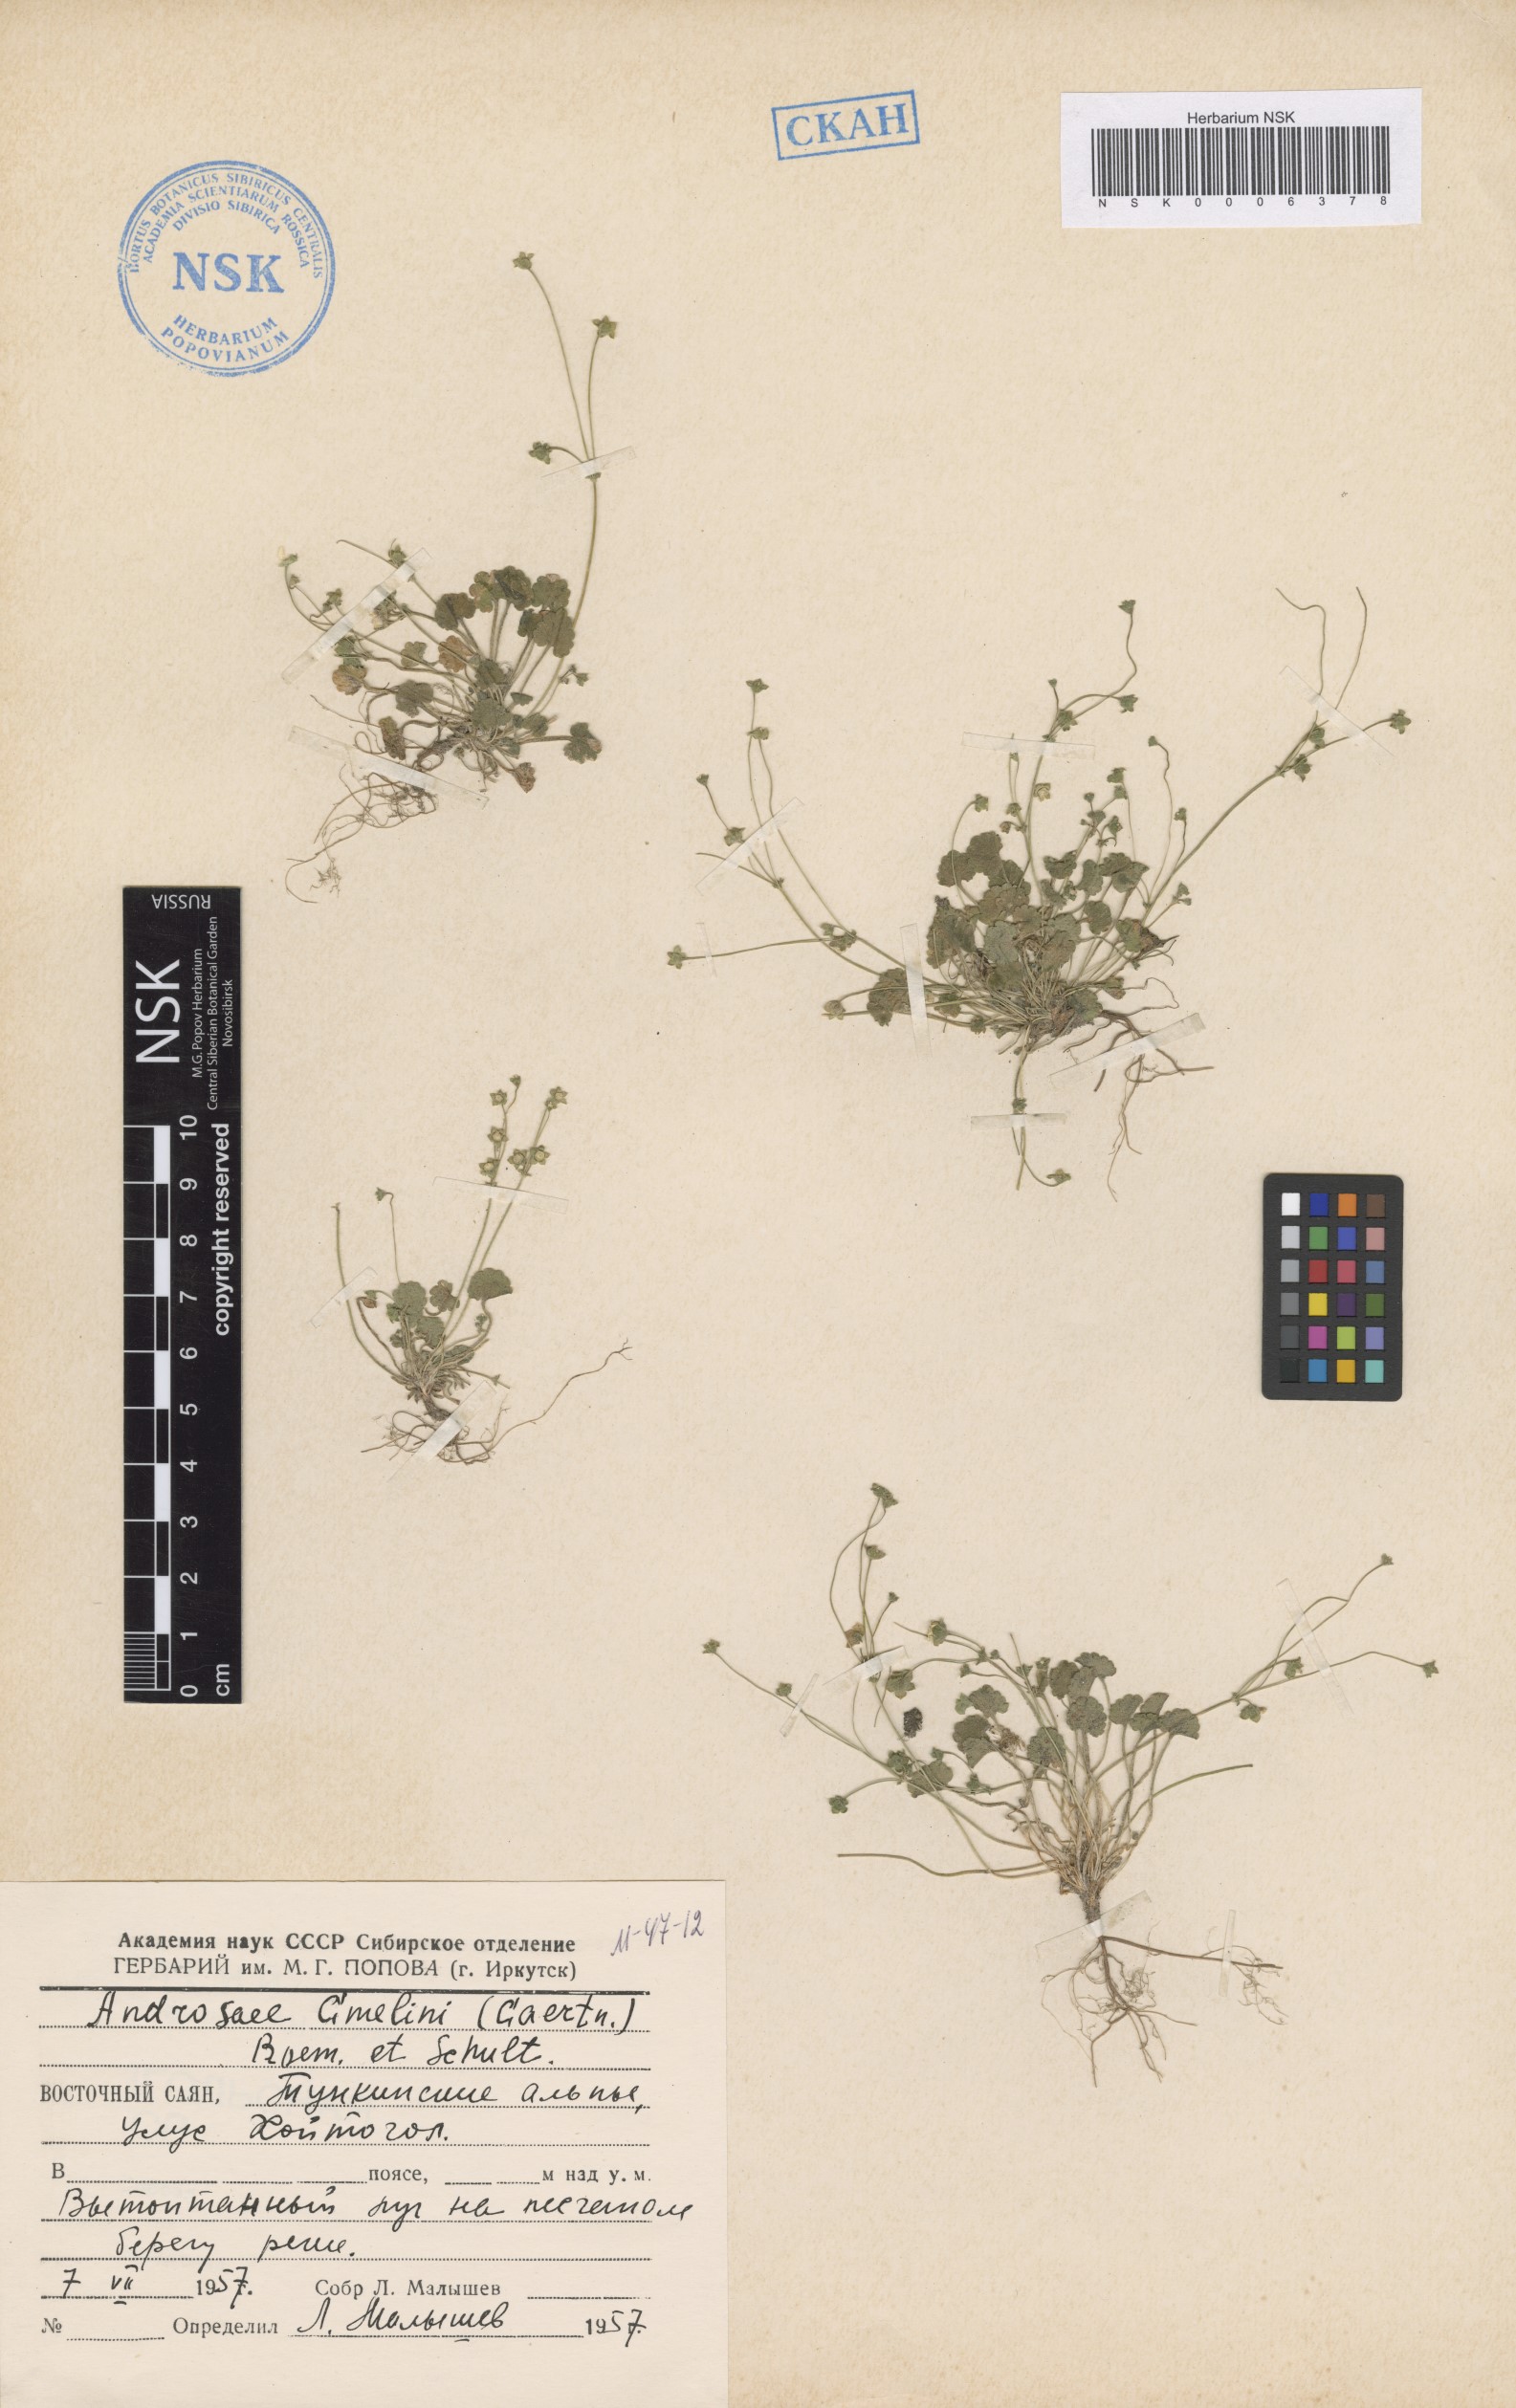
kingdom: Plantae
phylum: Tracheophyta
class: Magnoliopsida
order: Ericales
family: Primulaceae
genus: Androsace
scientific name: Androsace gmelinii
